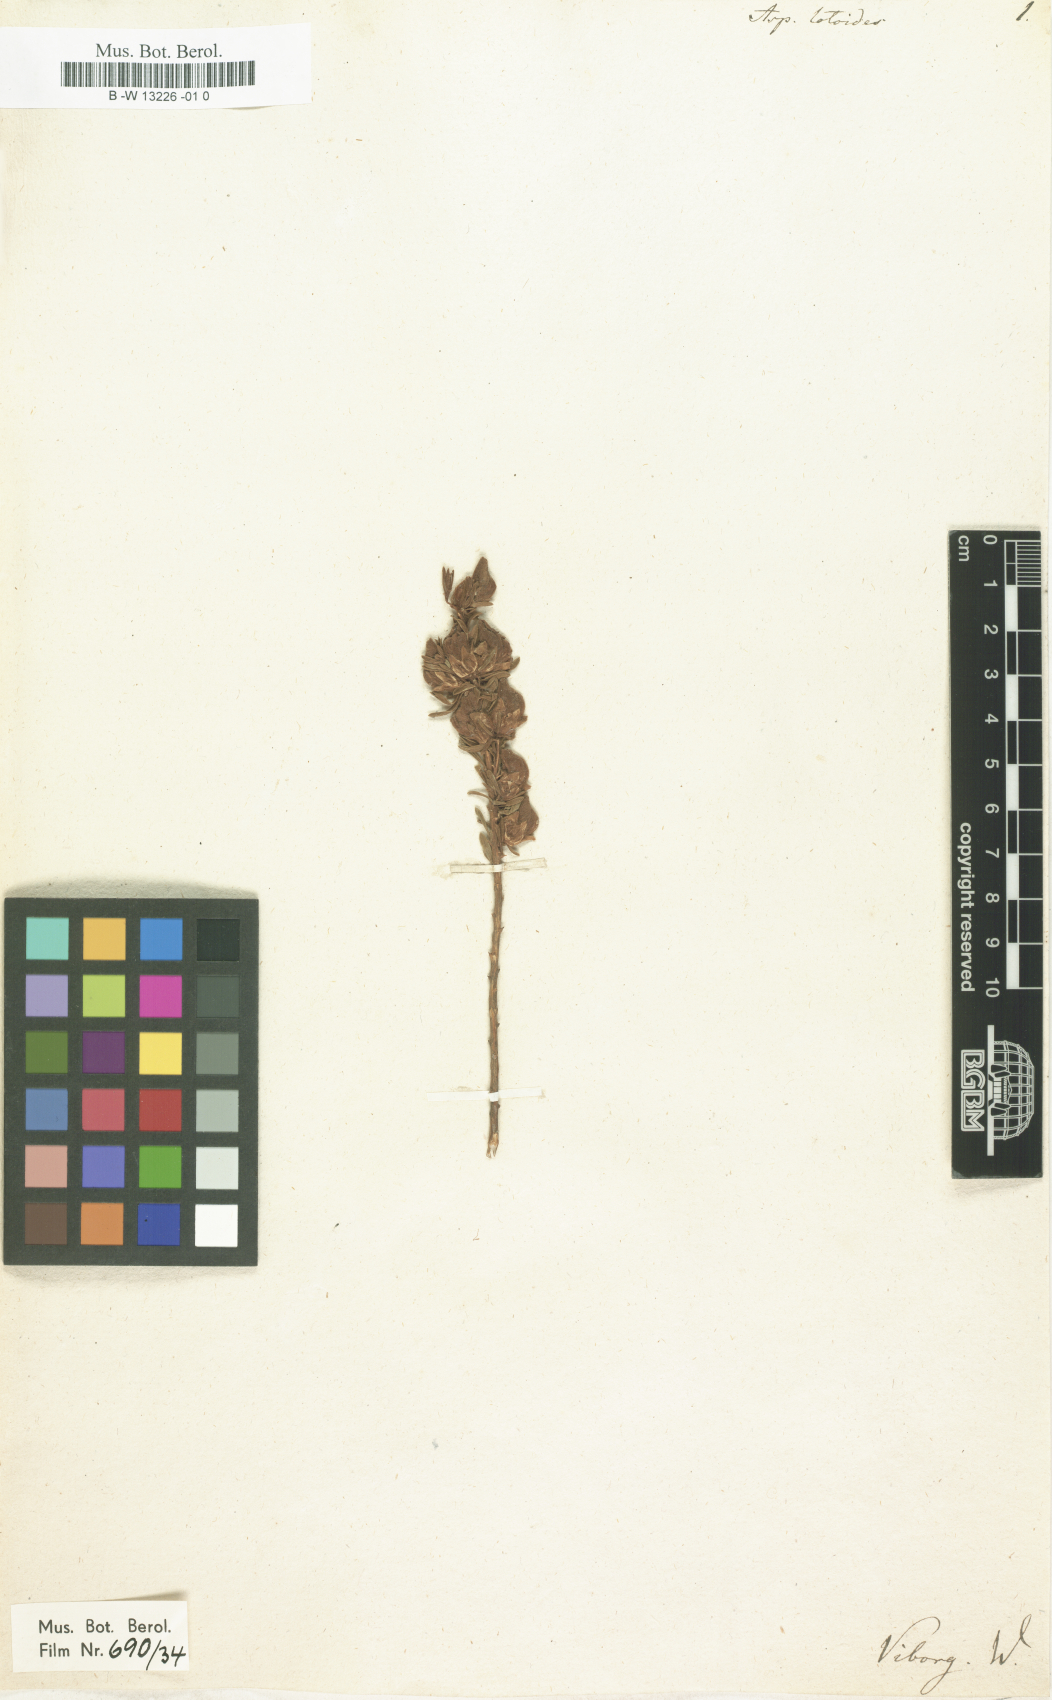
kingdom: Plantae
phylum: Tracheophyta
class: Magnoliopsida
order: Fabales
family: Fabaceae
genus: Aspalathus
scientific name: Aspalathus lotoides
